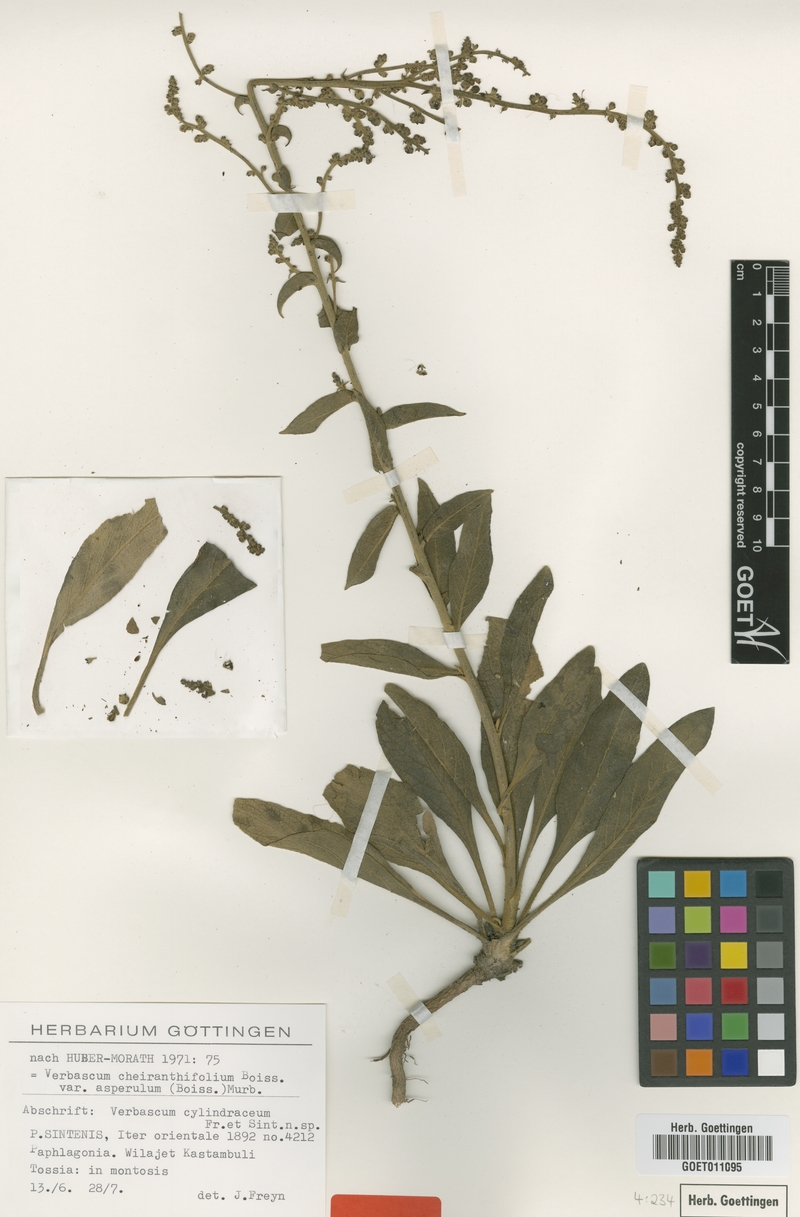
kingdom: Plantae
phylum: Tracheophyta
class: Magnoliopsida
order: Lamiales
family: Scrophulariaceae
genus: Verbascum
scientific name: Verbascum cheiranthifollum
